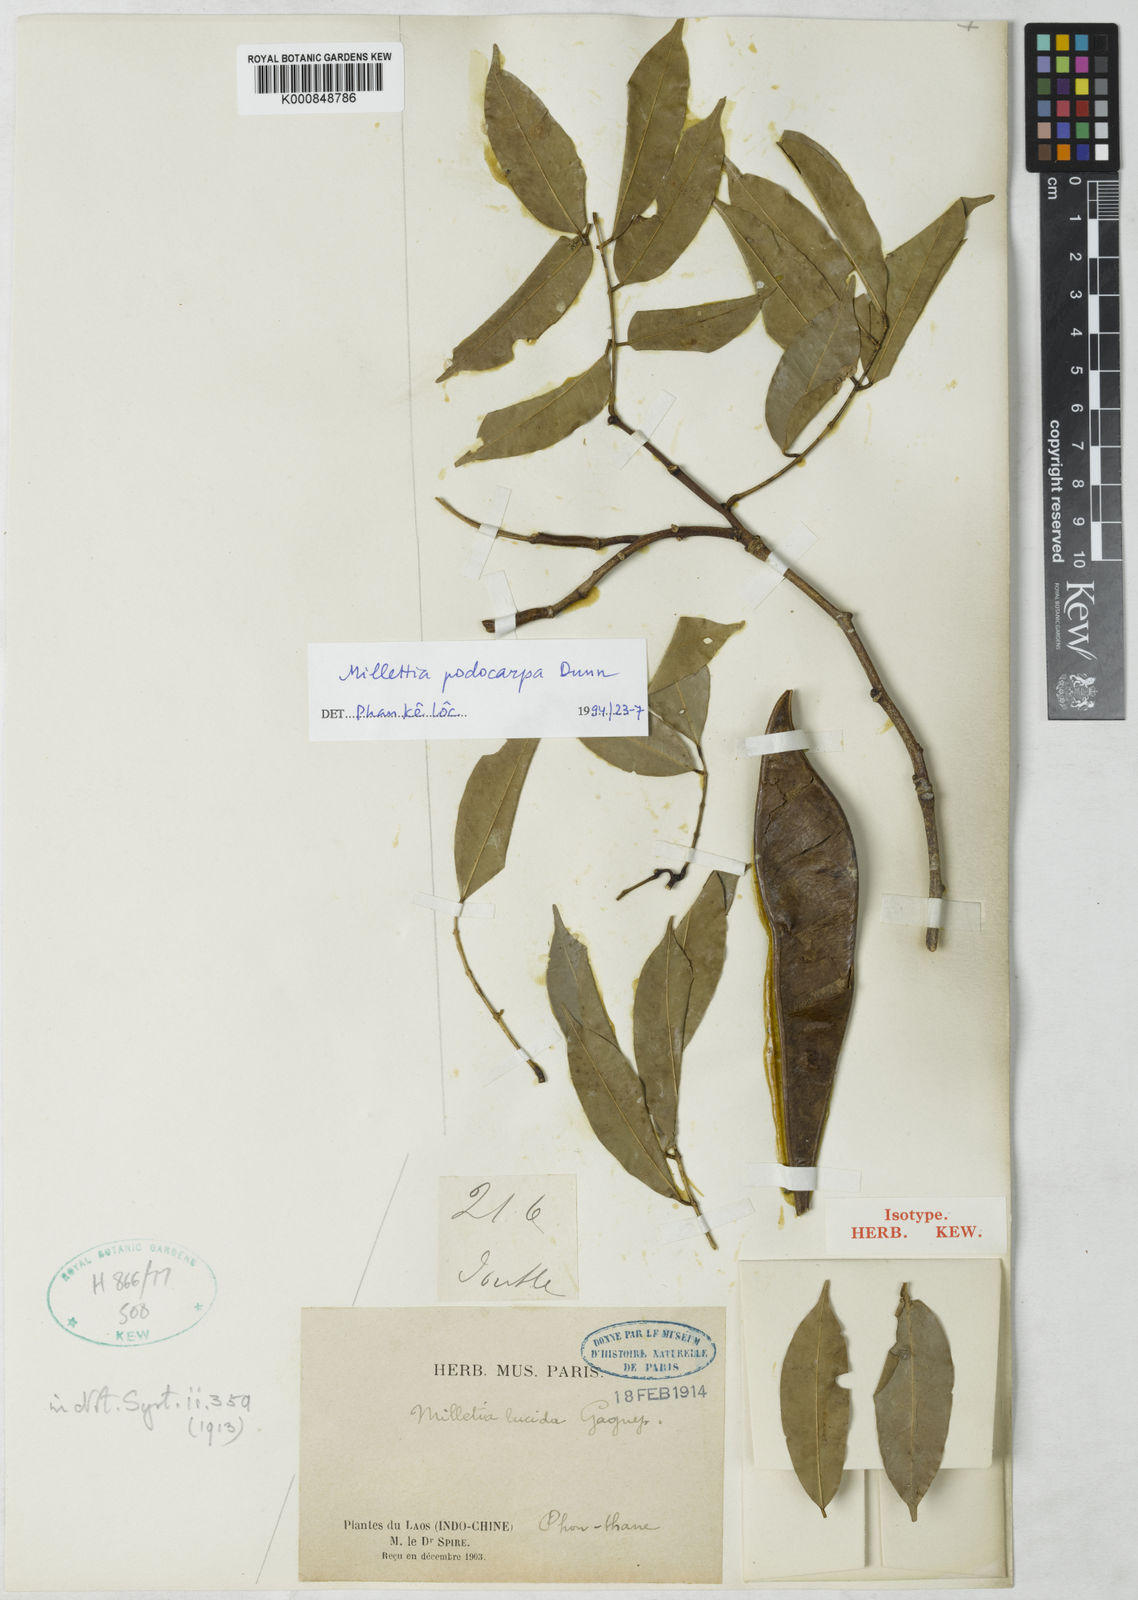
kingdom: Plantae
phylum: Tracheophyta
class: Magnoliopsida
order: Fabales
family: Fabaceae
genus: Millettia
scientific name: Millettia lucida
